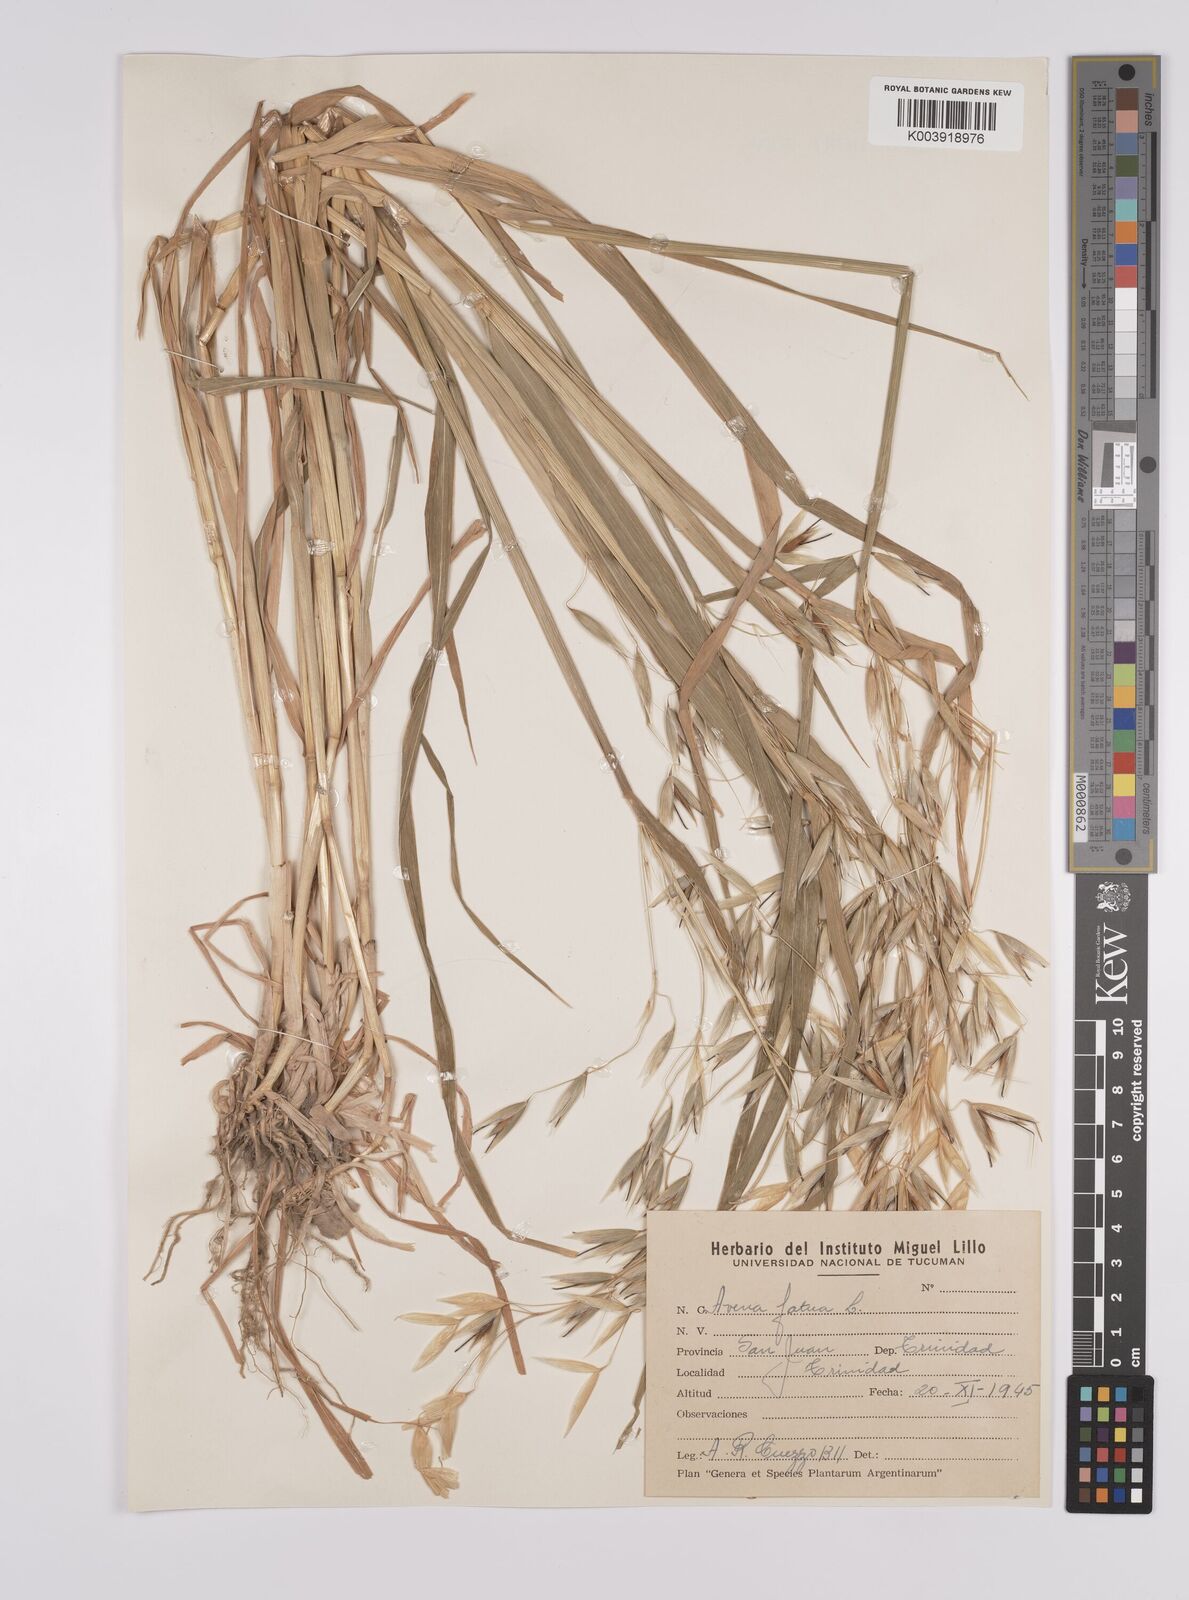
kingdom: Plantae
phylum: Tracheophyta
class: Liliopsida
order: Poales
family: Poaceae
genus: Avena
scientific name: Avena fatua
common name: Wild oat
